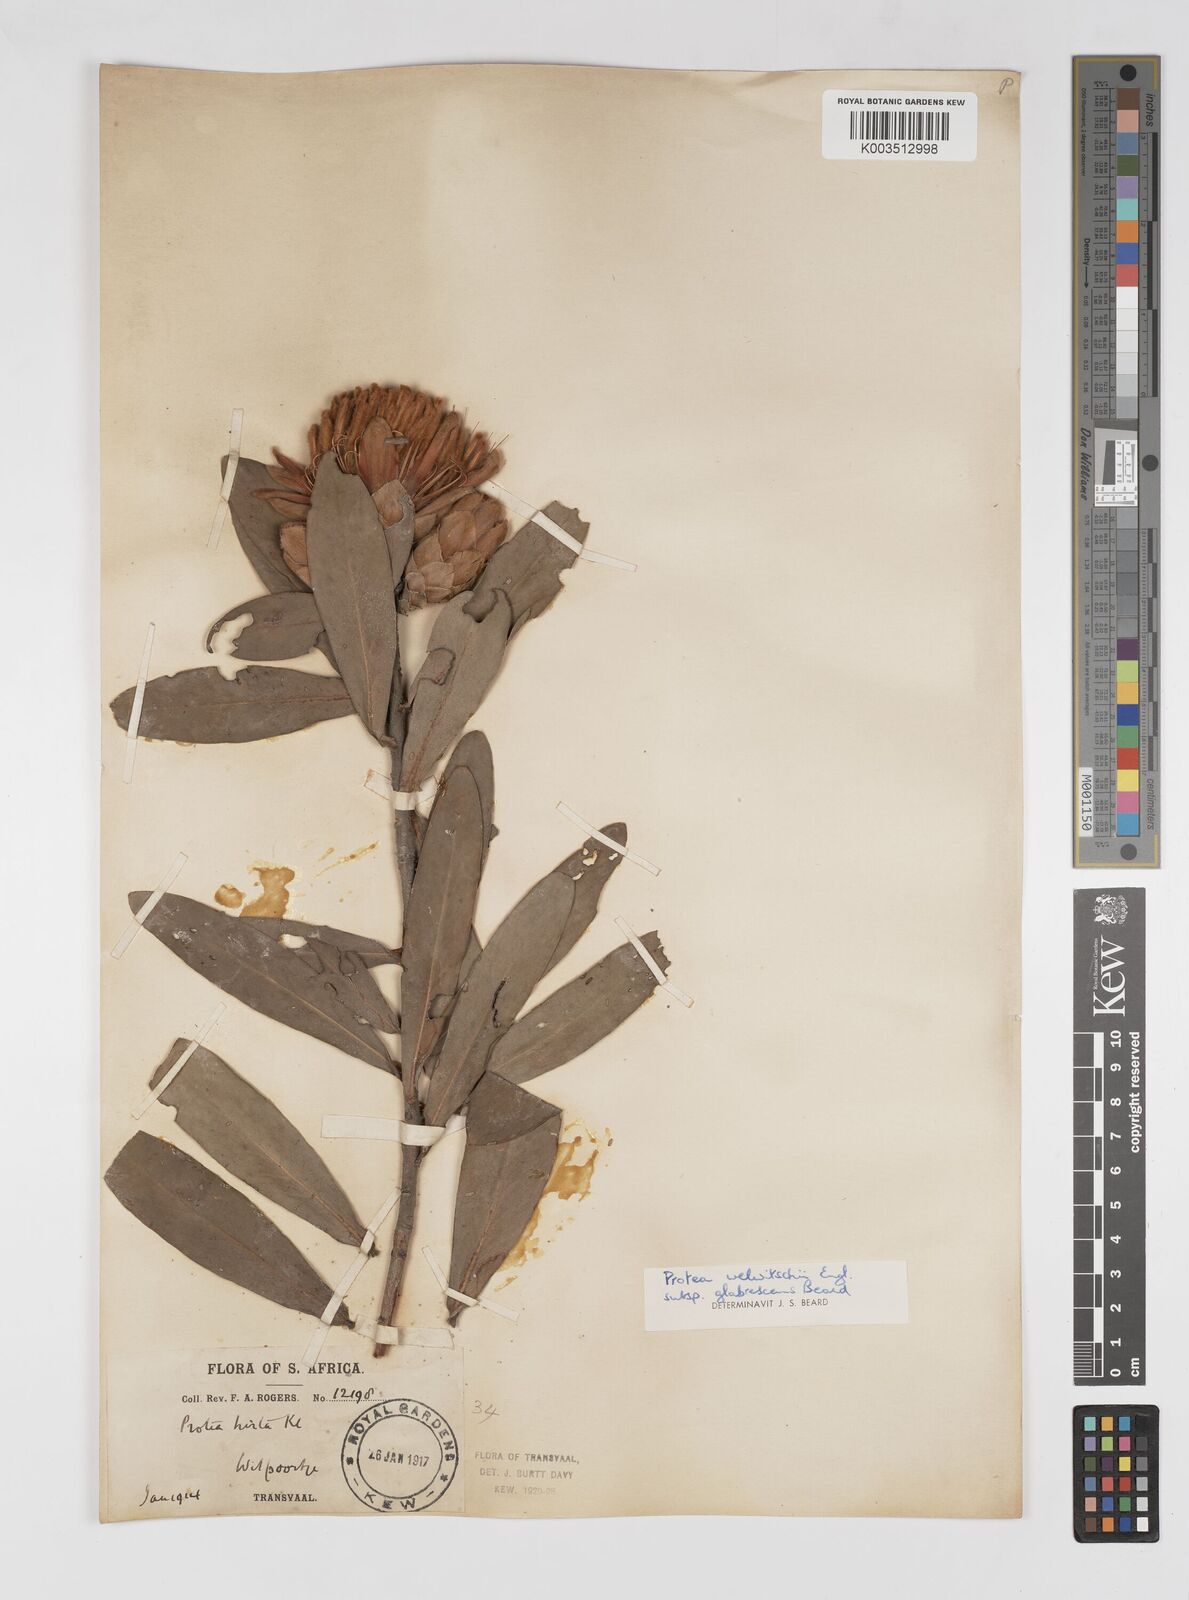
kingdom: Plantae
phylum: Tracheophyta
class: Magnoliopsida
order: Proteales
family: Proteaceae
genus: Protea
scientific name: Protea welwitschii
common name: Cluster-head protea
